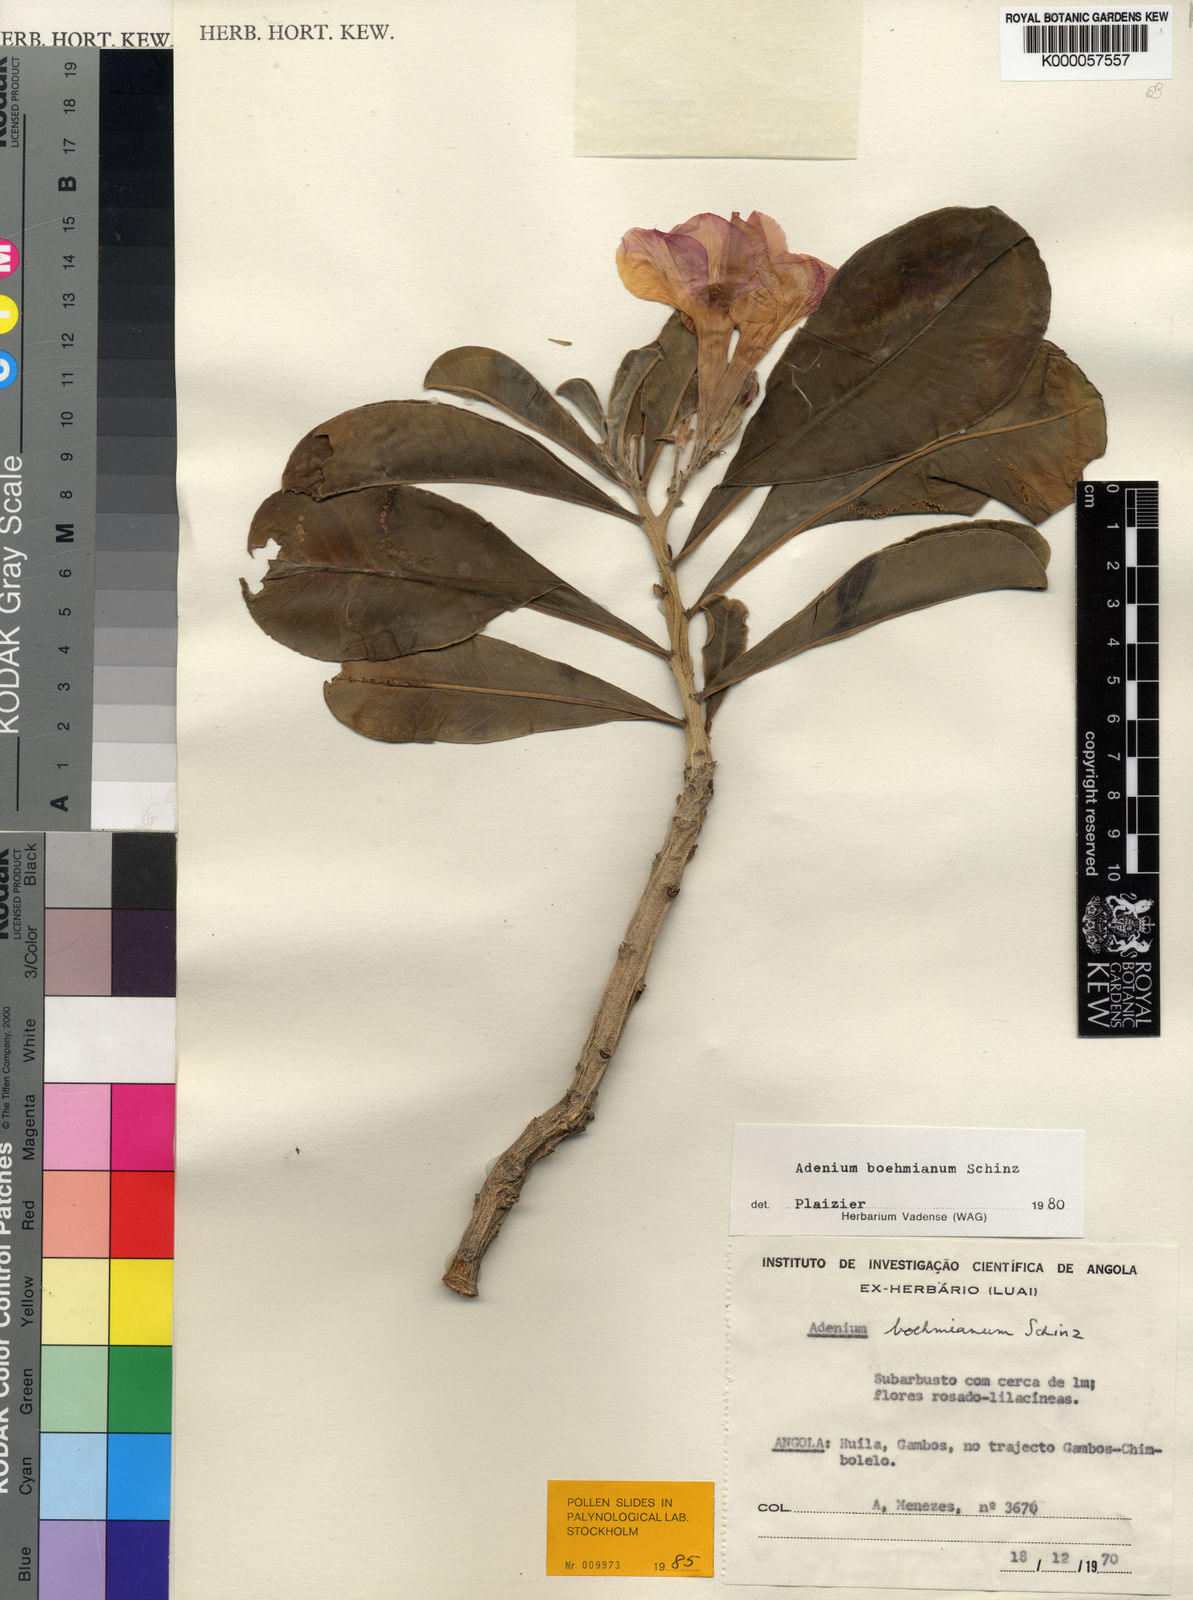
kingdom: Plantae
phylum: Tracheophyta
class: Magnoliopsida
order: Gentianales
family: Apocynaceae
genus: Adenium
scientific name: Adenium obesum
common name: Desert-rose
